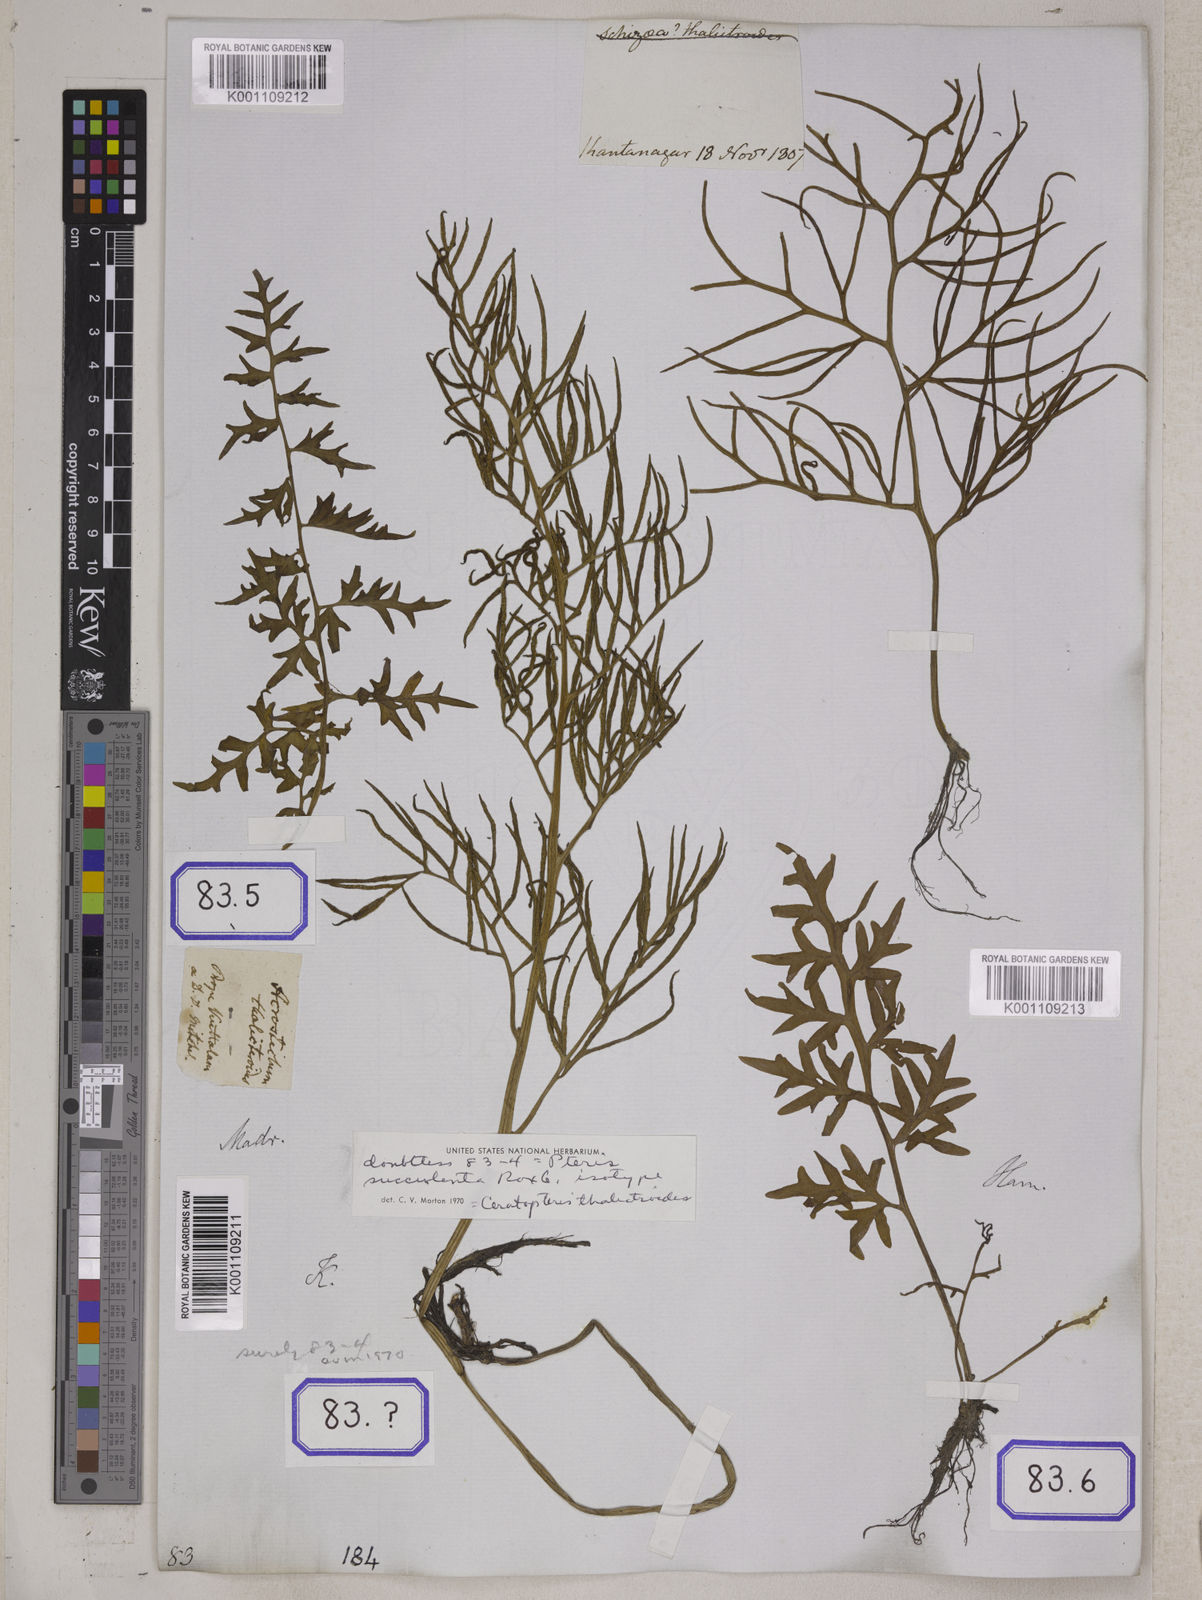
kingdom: Plantae
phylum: Tracheophyta
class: Polypodiopsida
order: Polypodiales
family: Pteridaceae
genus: Ceratopteris
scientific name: Ceratopteris thalictroides
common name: Water fern
